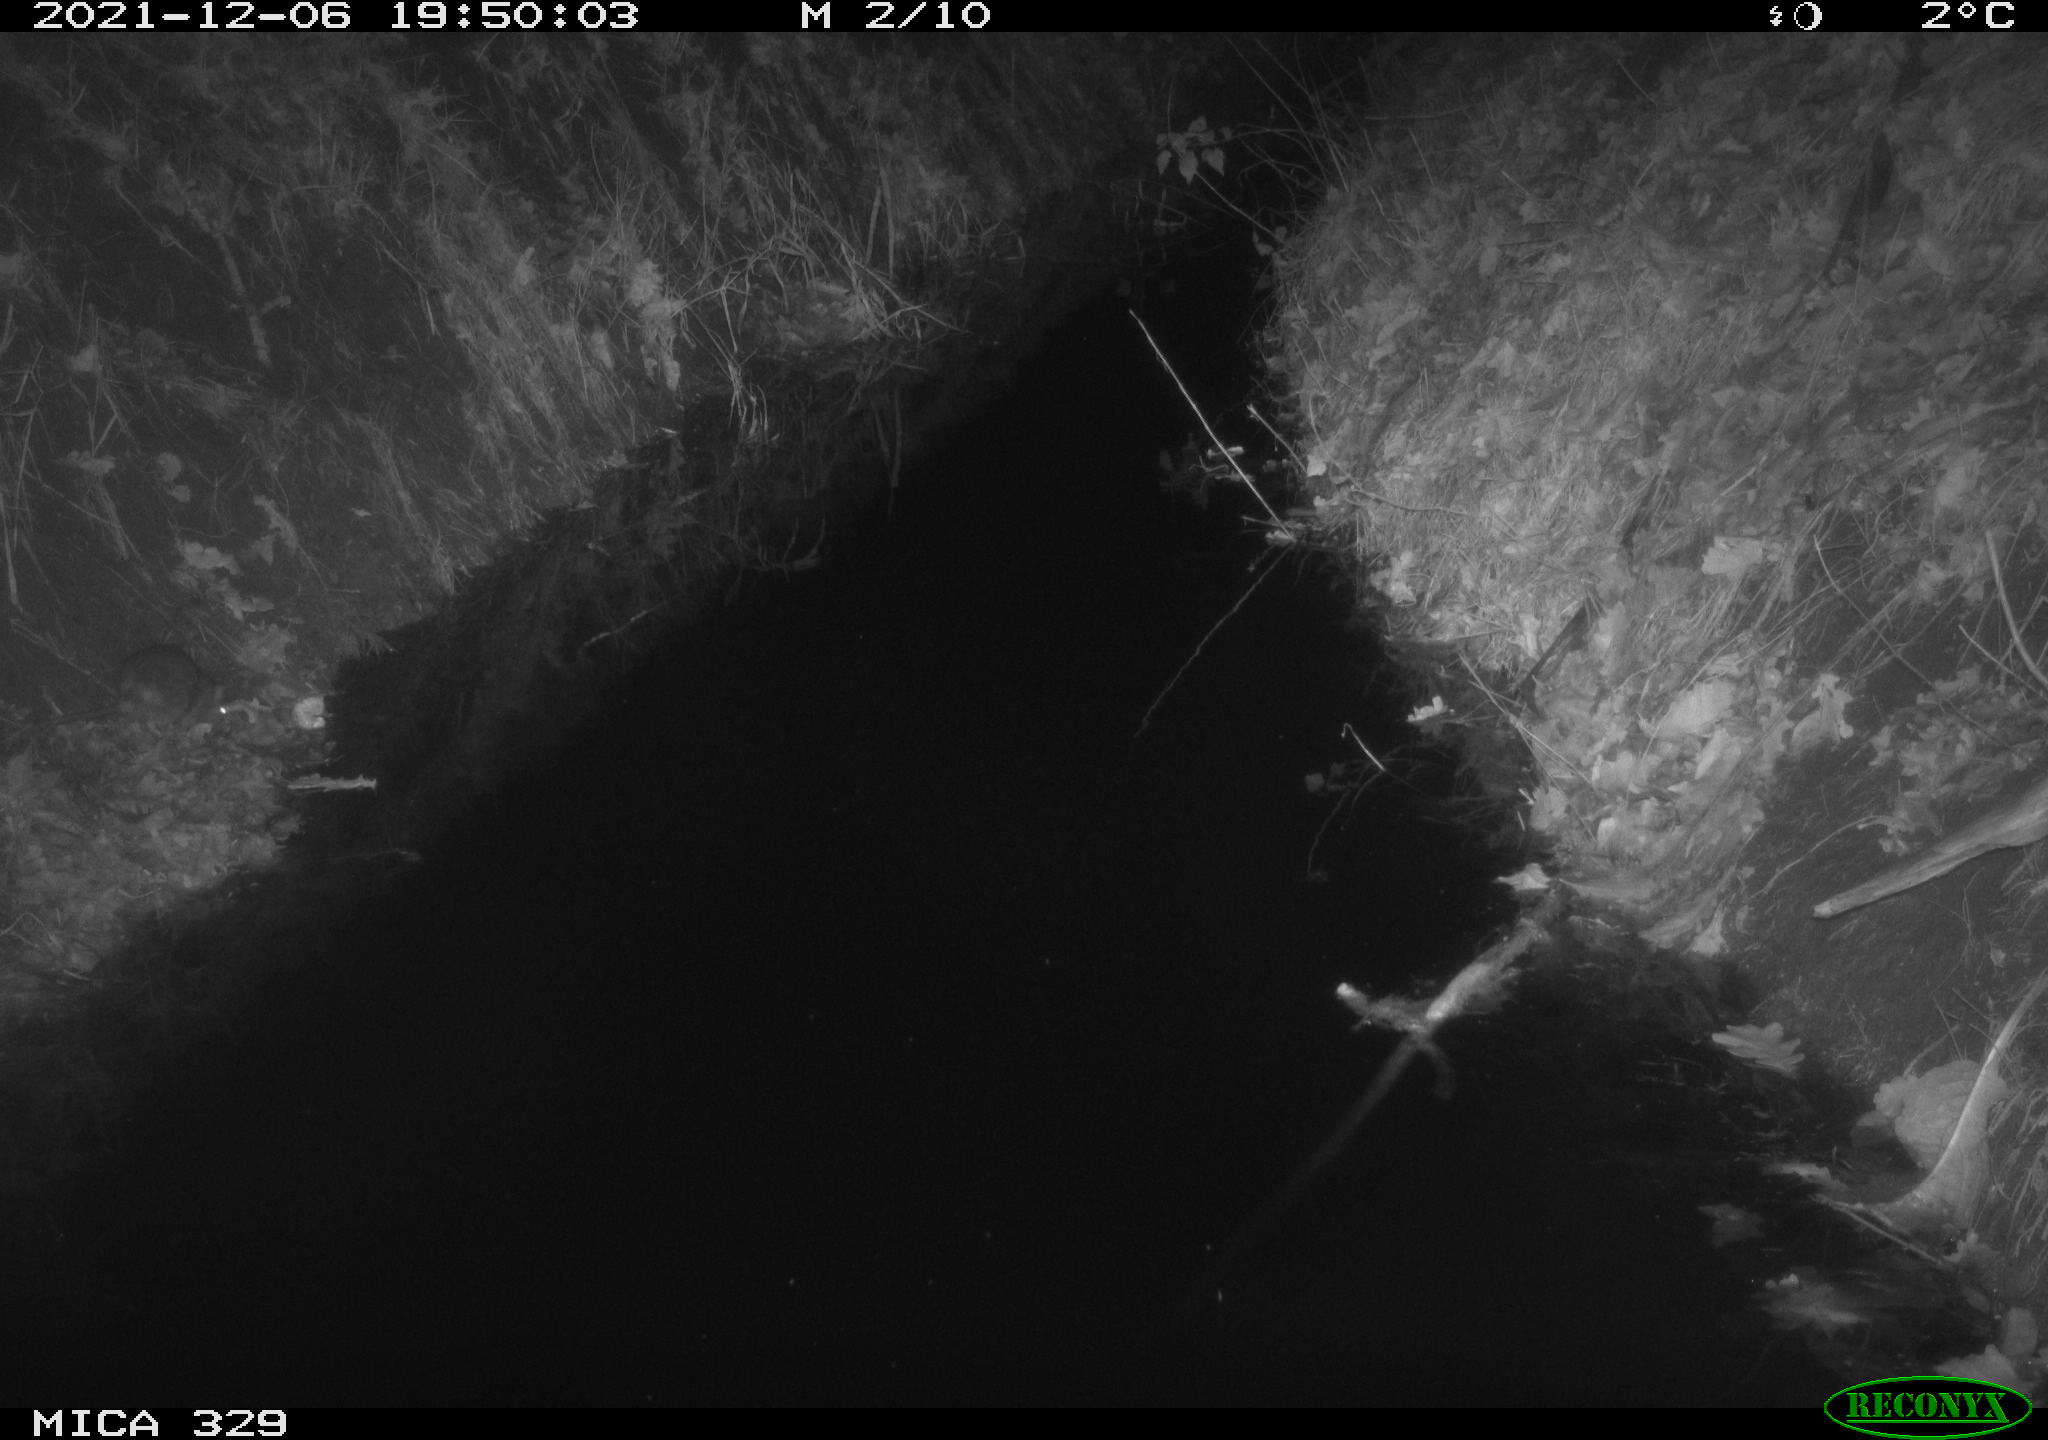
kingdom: Animalia
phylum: Chordata
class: Mammalia
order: Rodentia
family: Muridae
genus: Rattus
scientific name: Rattus norvegicus
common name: Brown rat
